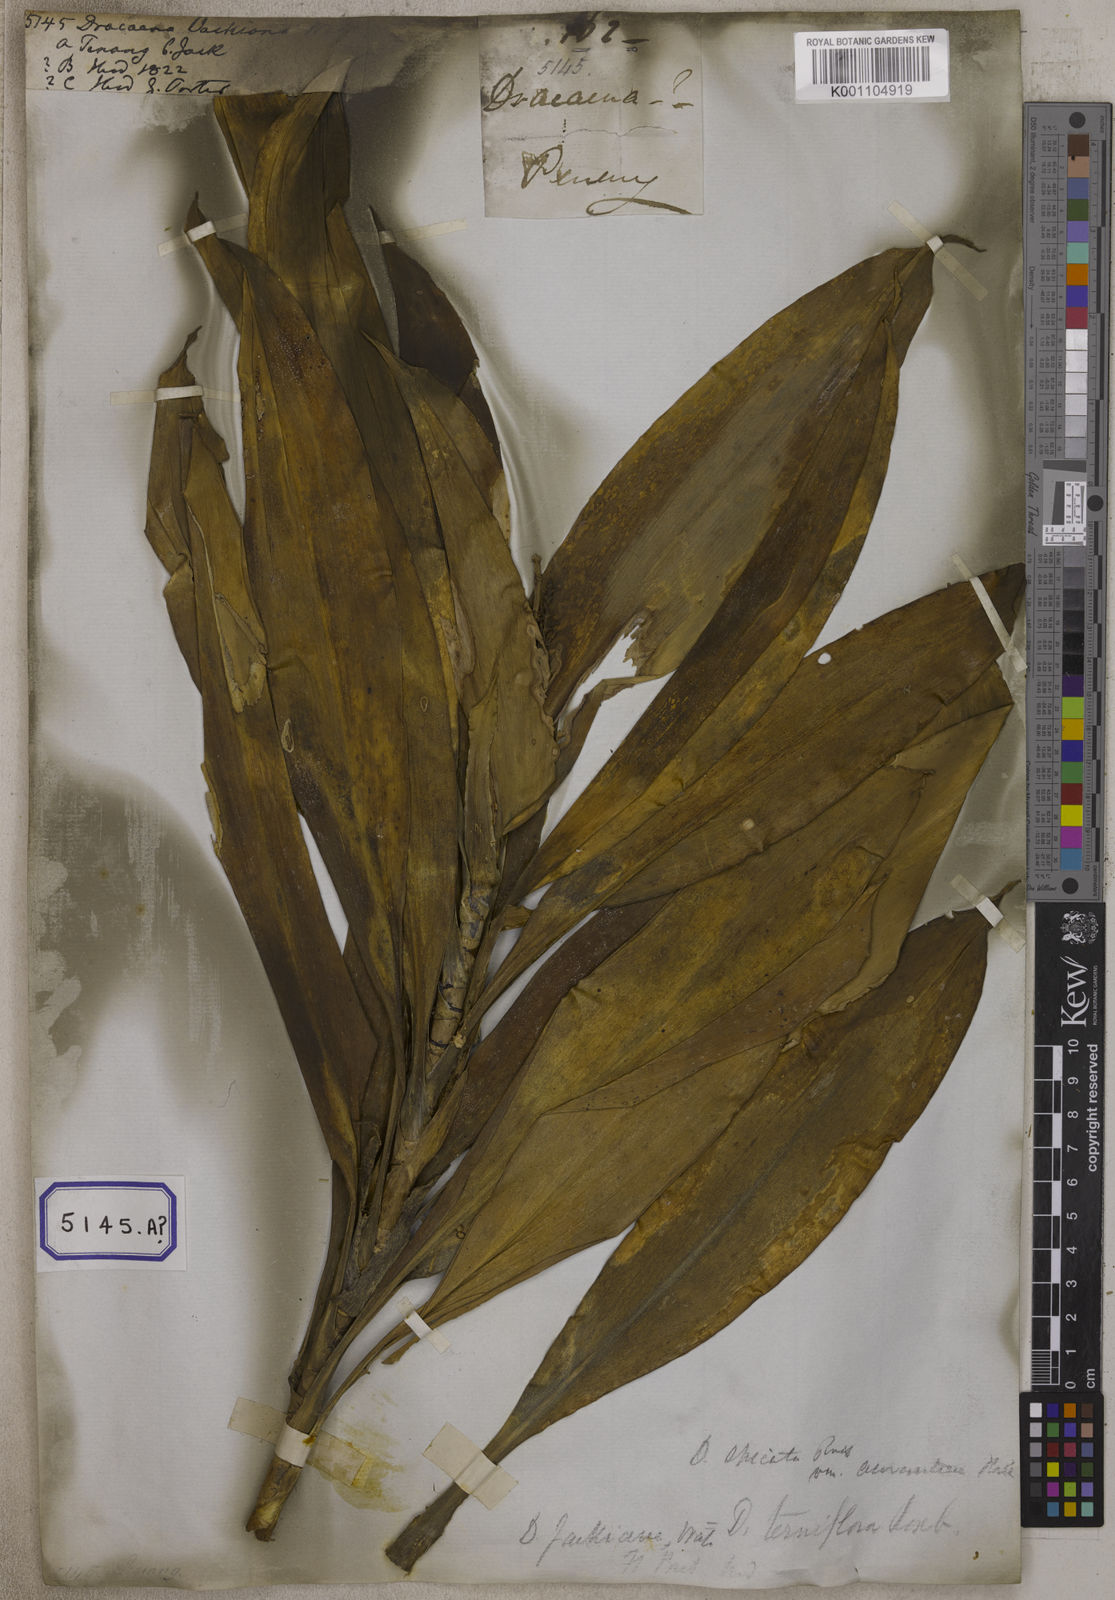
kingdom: Plantae
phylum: Tracheophyta
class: Liliopsida
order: Asparagales
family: Asparagaceae
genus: Dracaena
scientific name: Dracaena
